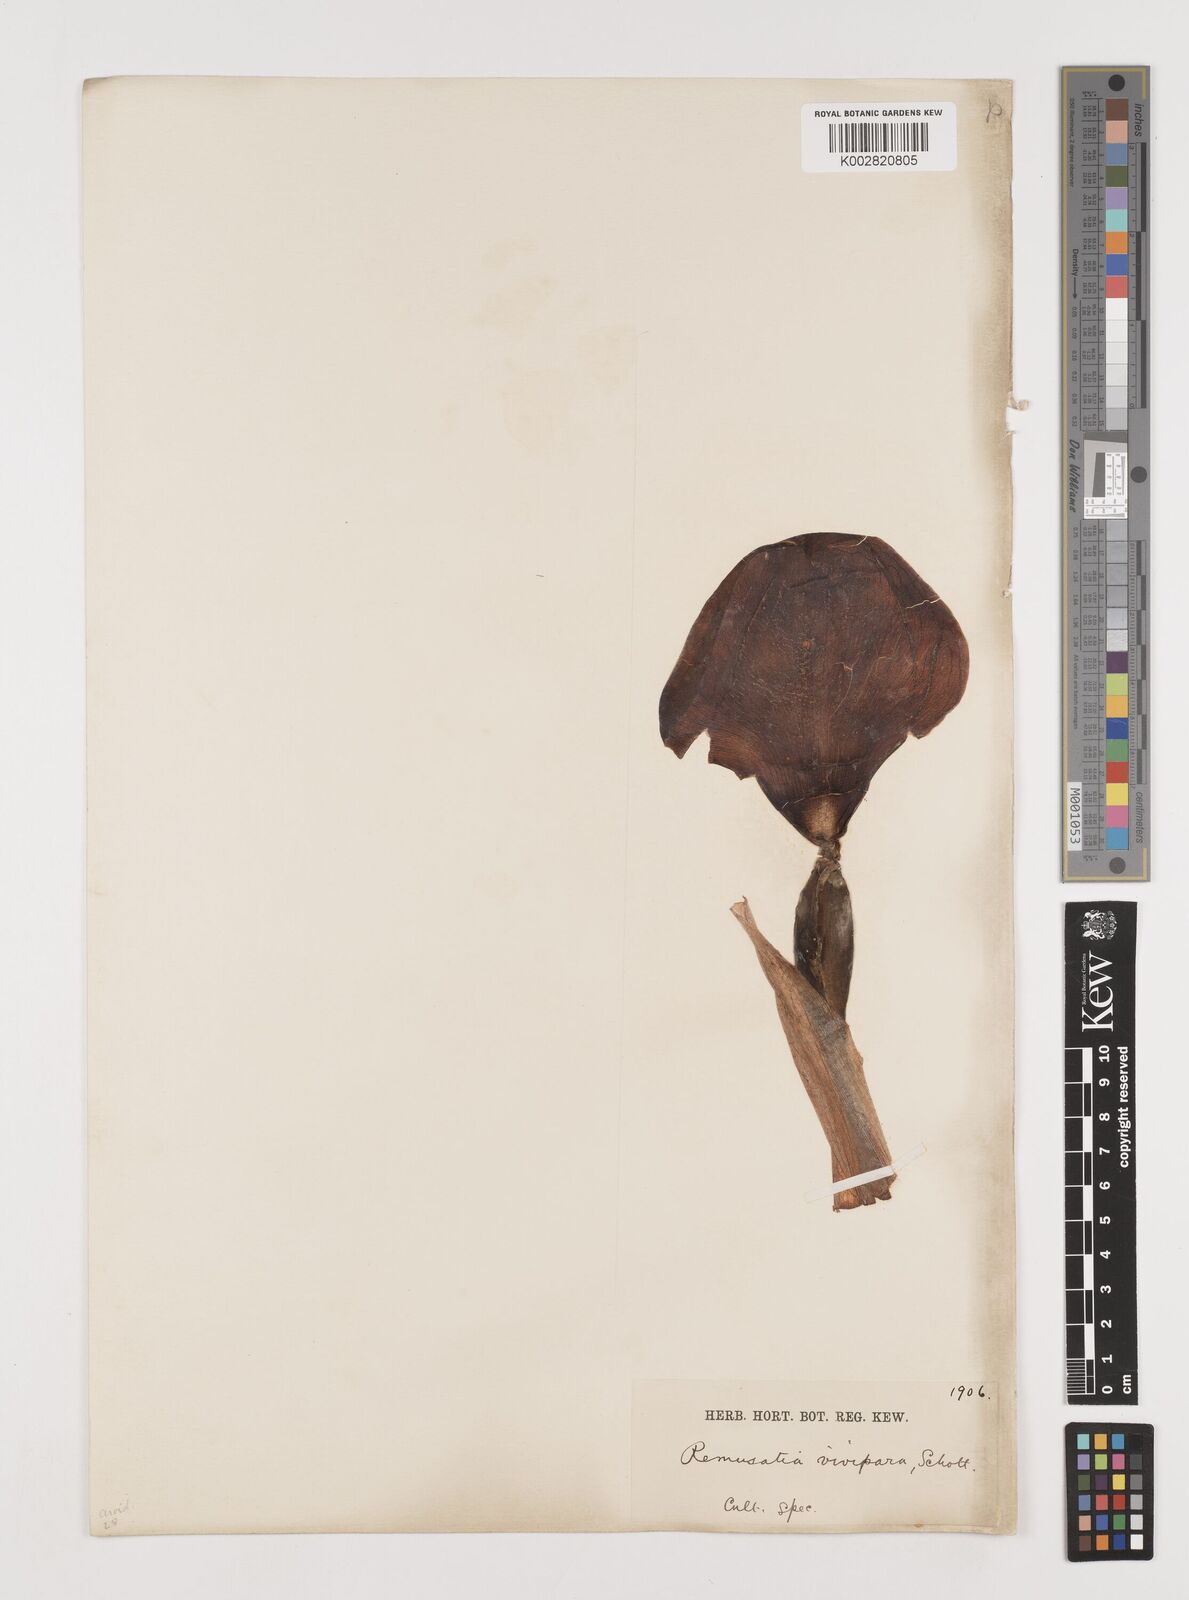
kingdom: Plantae
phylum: Tracheophyta
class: Liliopsida
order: Alismatales
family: Araceae
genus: Remusatia
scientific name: Remusatia vivipara
